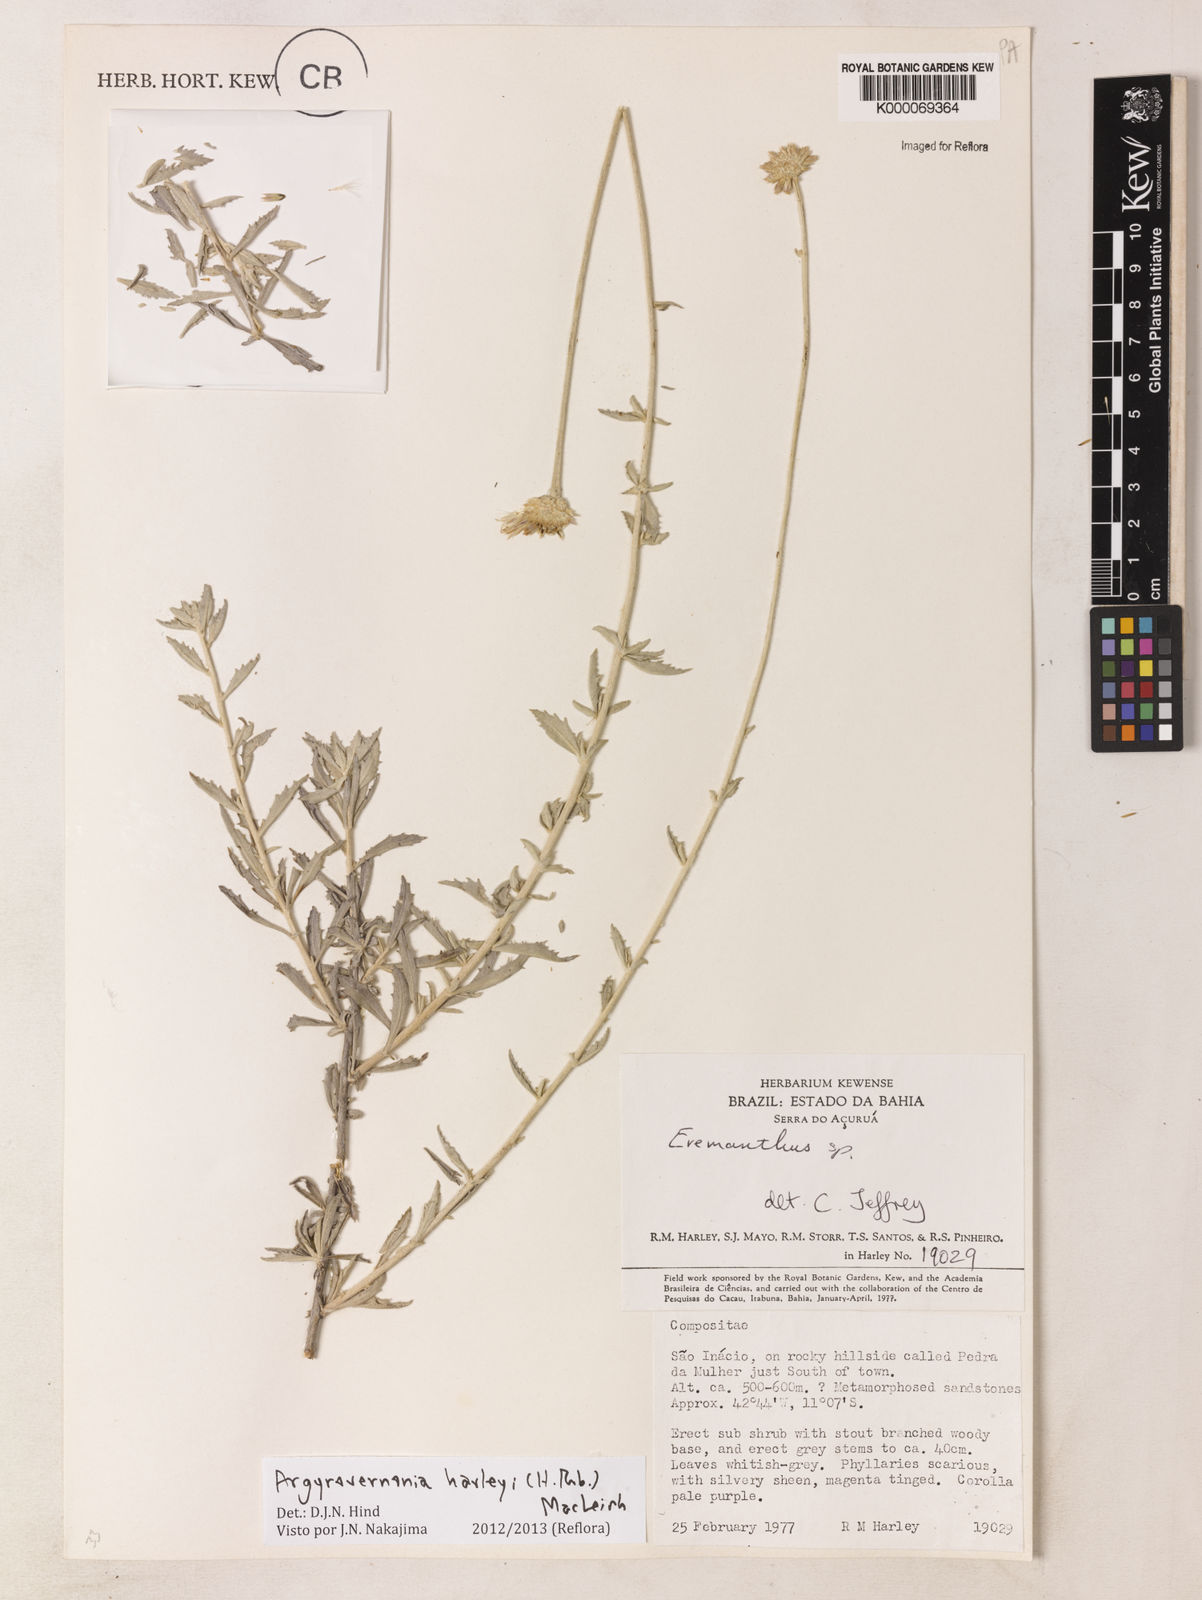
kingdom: Plantae
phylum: Tracheophyta
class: Magnoliopsida
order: Asterales
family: Asteraceae
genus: Chresta
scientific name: Chresta harleyi
